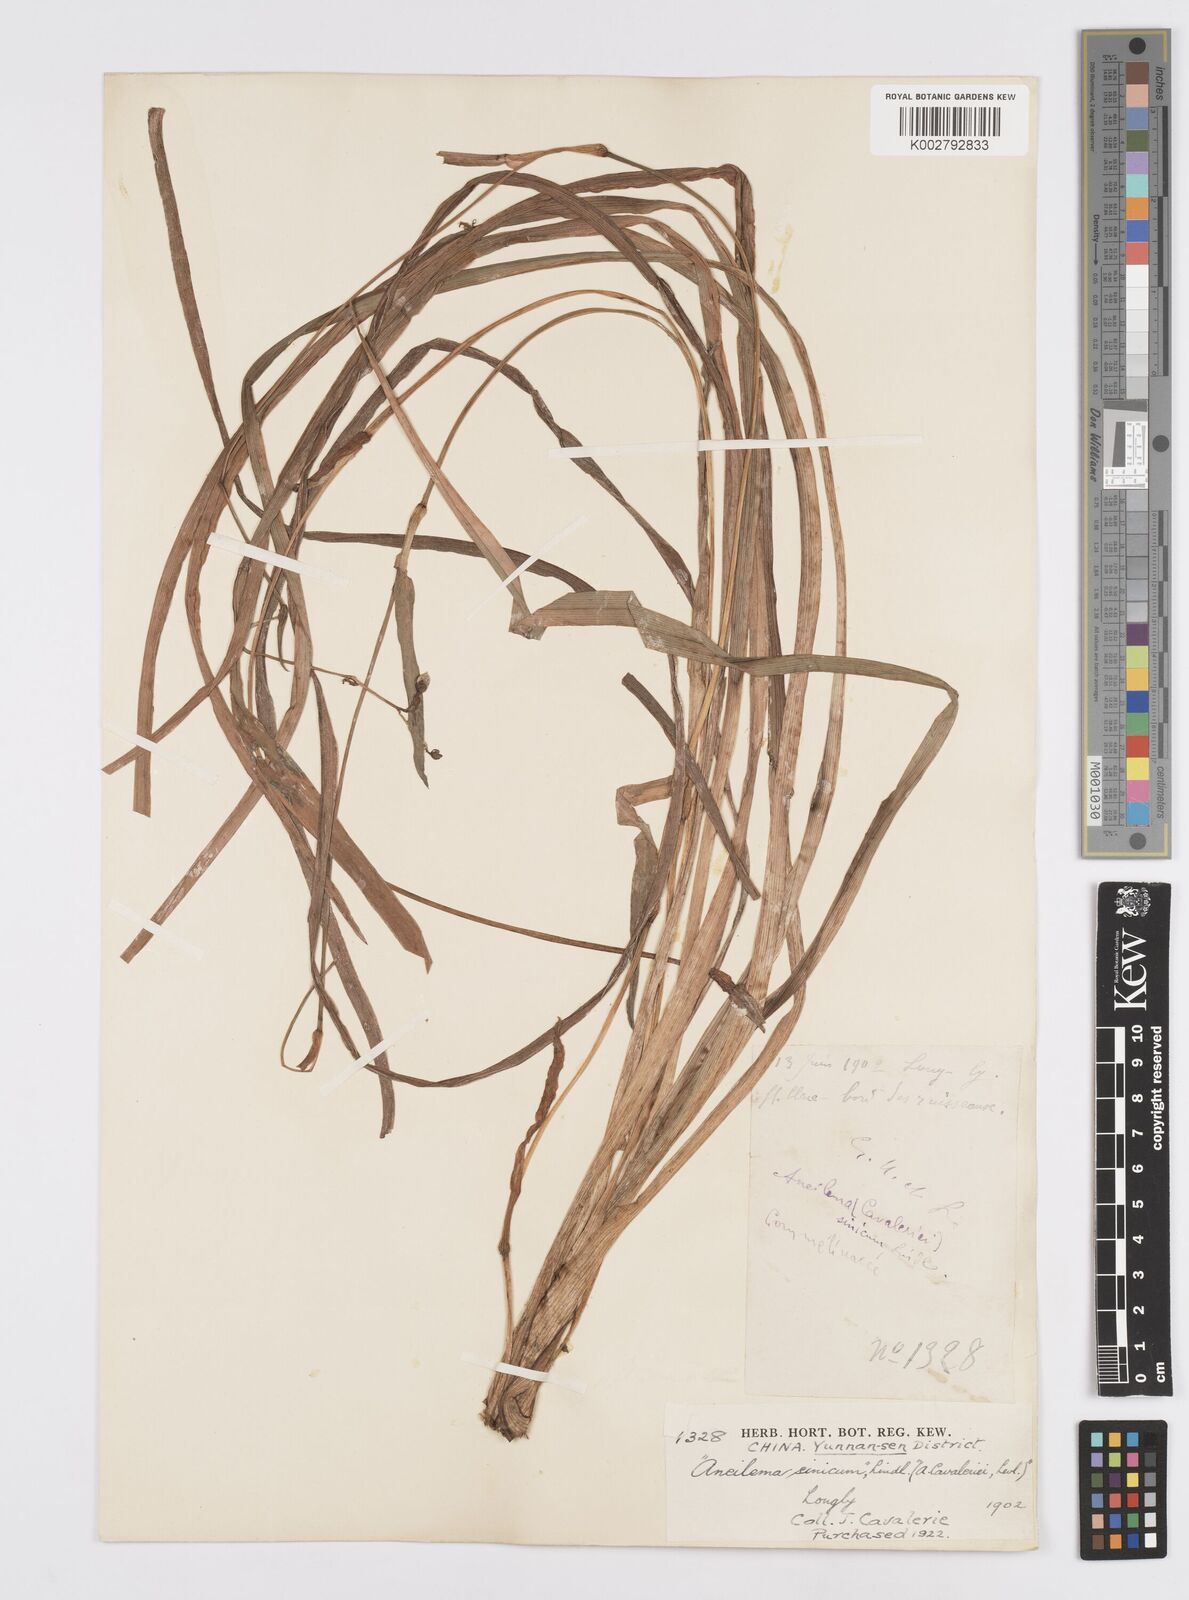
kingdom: Plantae
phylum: Tracheophyta
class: Liliopsida
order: Commelinales
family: Commelinaceae
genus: Murdannia
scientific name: Murdannia
